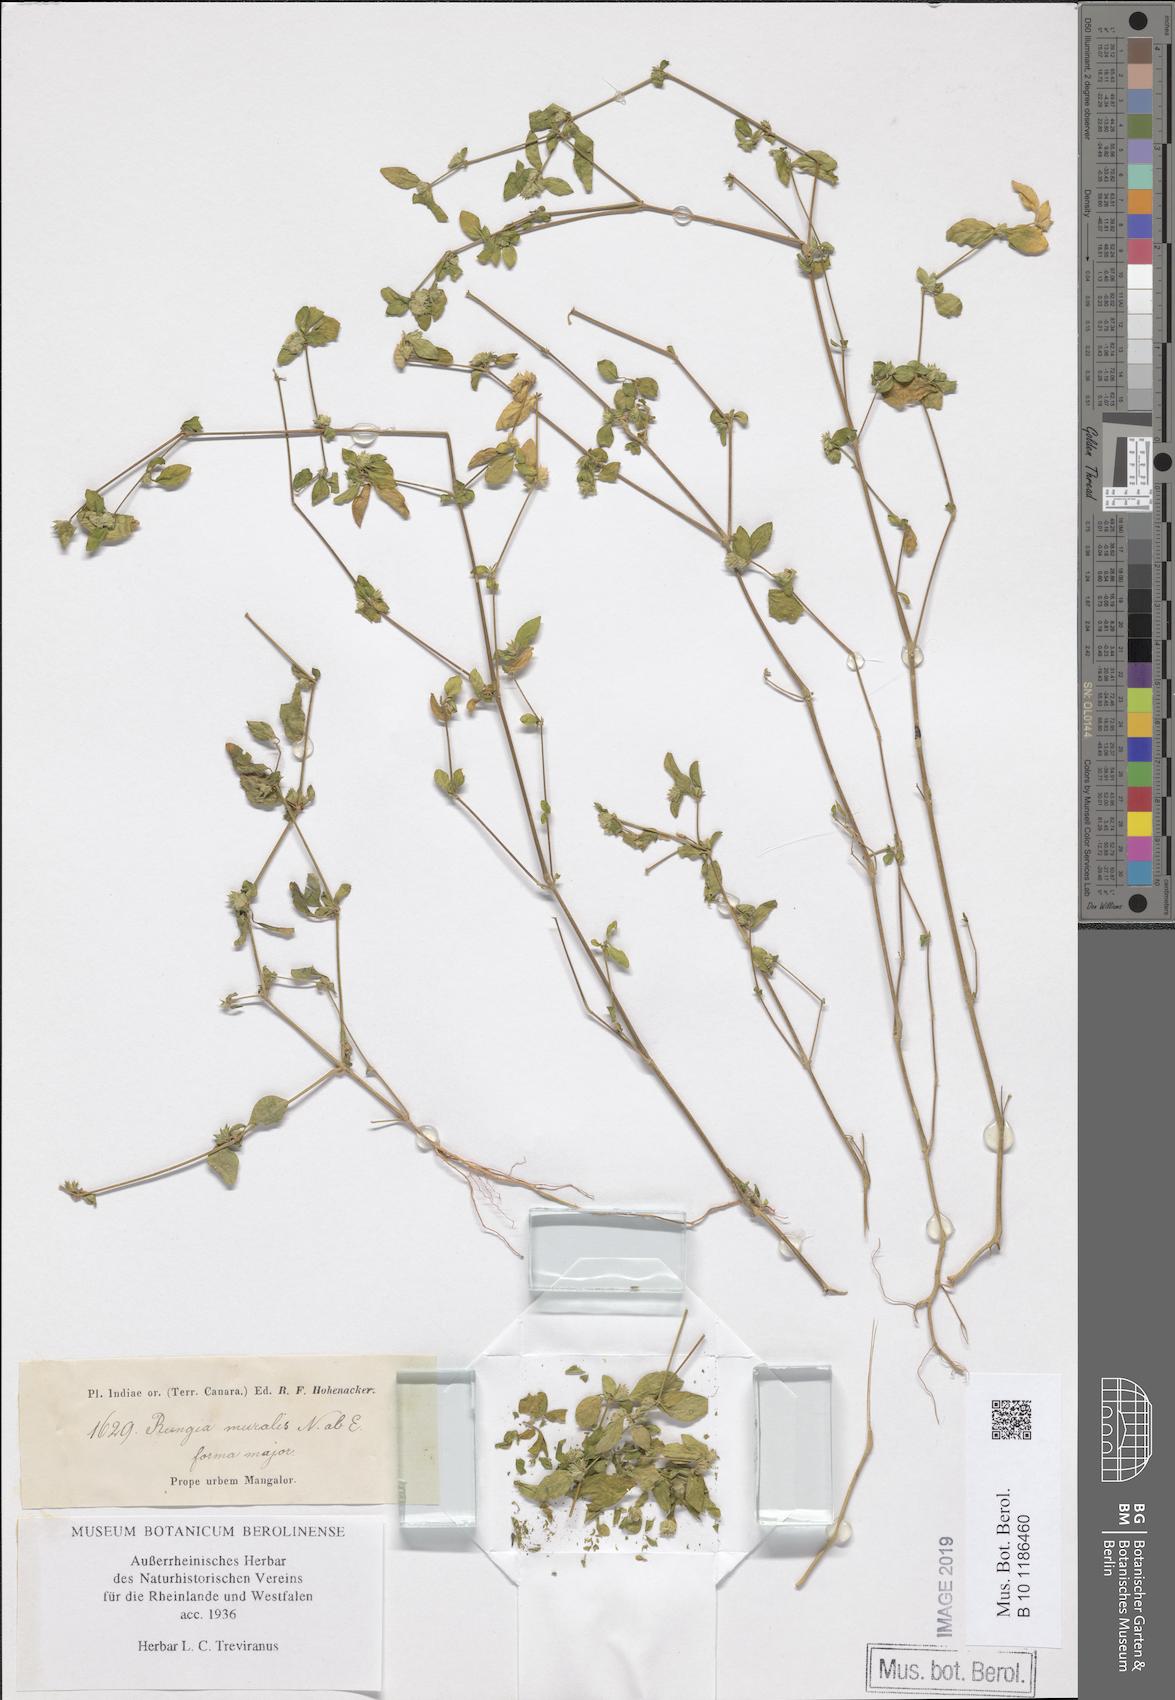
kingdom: Plantae
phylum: Tracheophyta
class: Magnoliopsida
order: Lamiales
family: Acanthaceae
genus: Rungia
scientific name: Rungia pectinata
